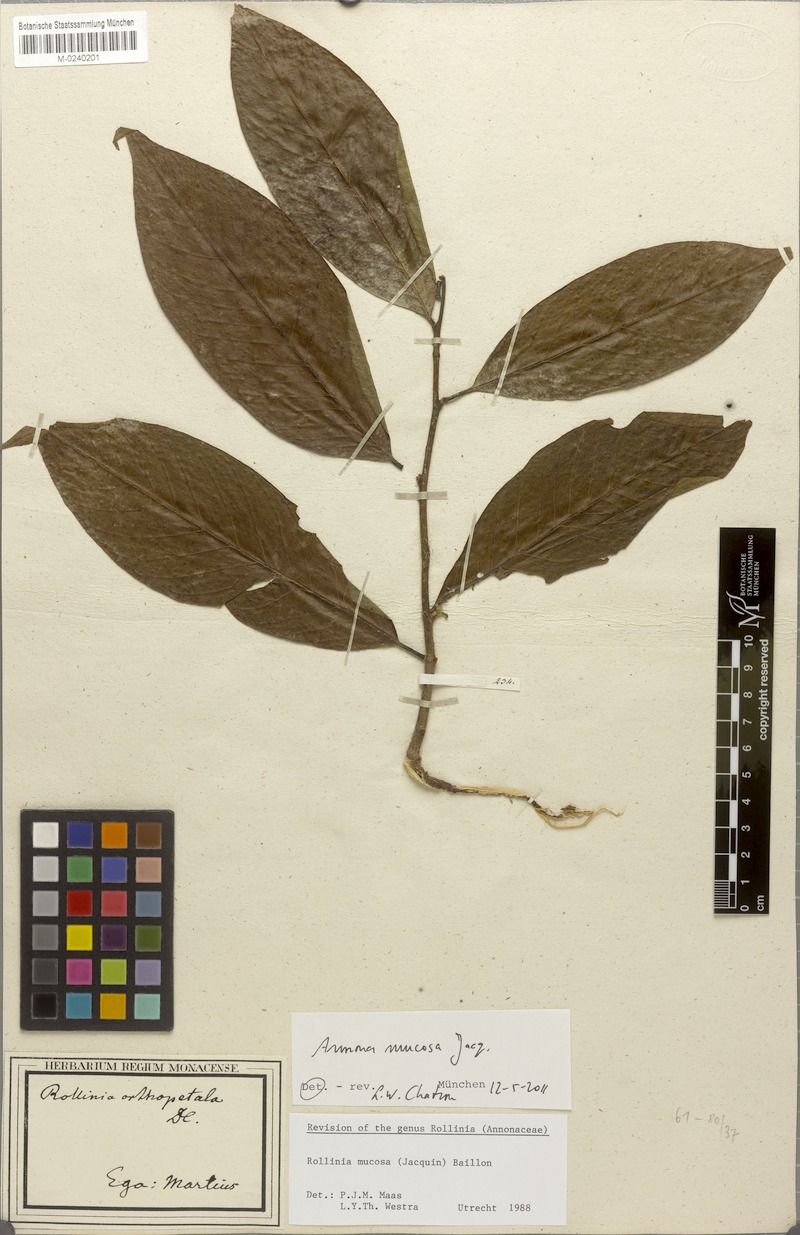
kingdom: Plantae
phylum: Tracheophyta
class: Magnoliopsida
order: Magnoliales
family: Annonaceae
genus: Annona
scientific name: Annona mucosa
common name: Sugar apple
